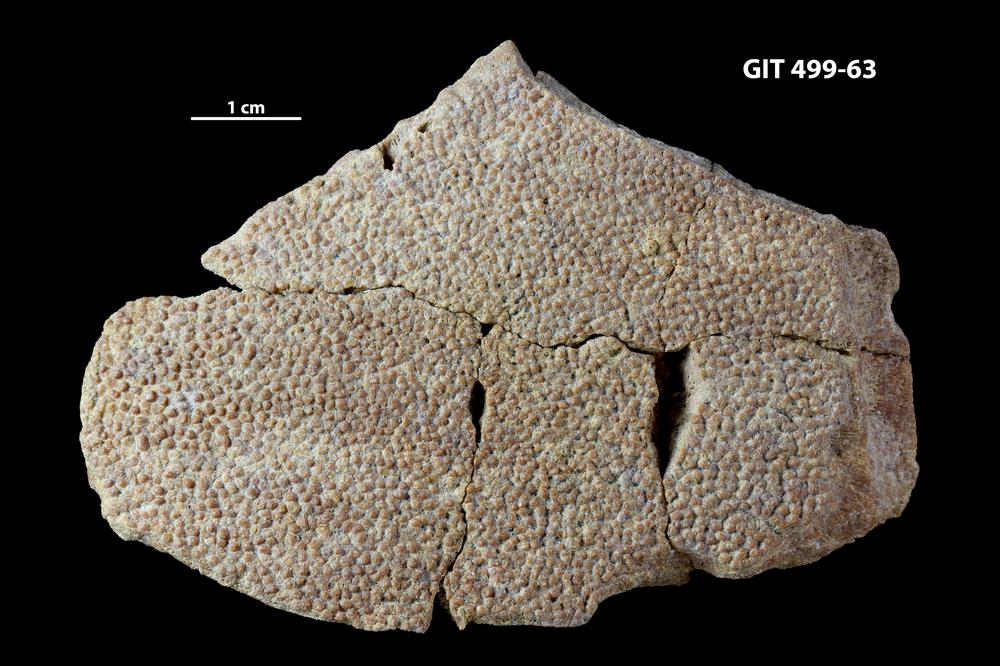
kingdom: Animalia
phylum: Chordata
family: Holoptychiidae
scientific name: Holoptychiidae
